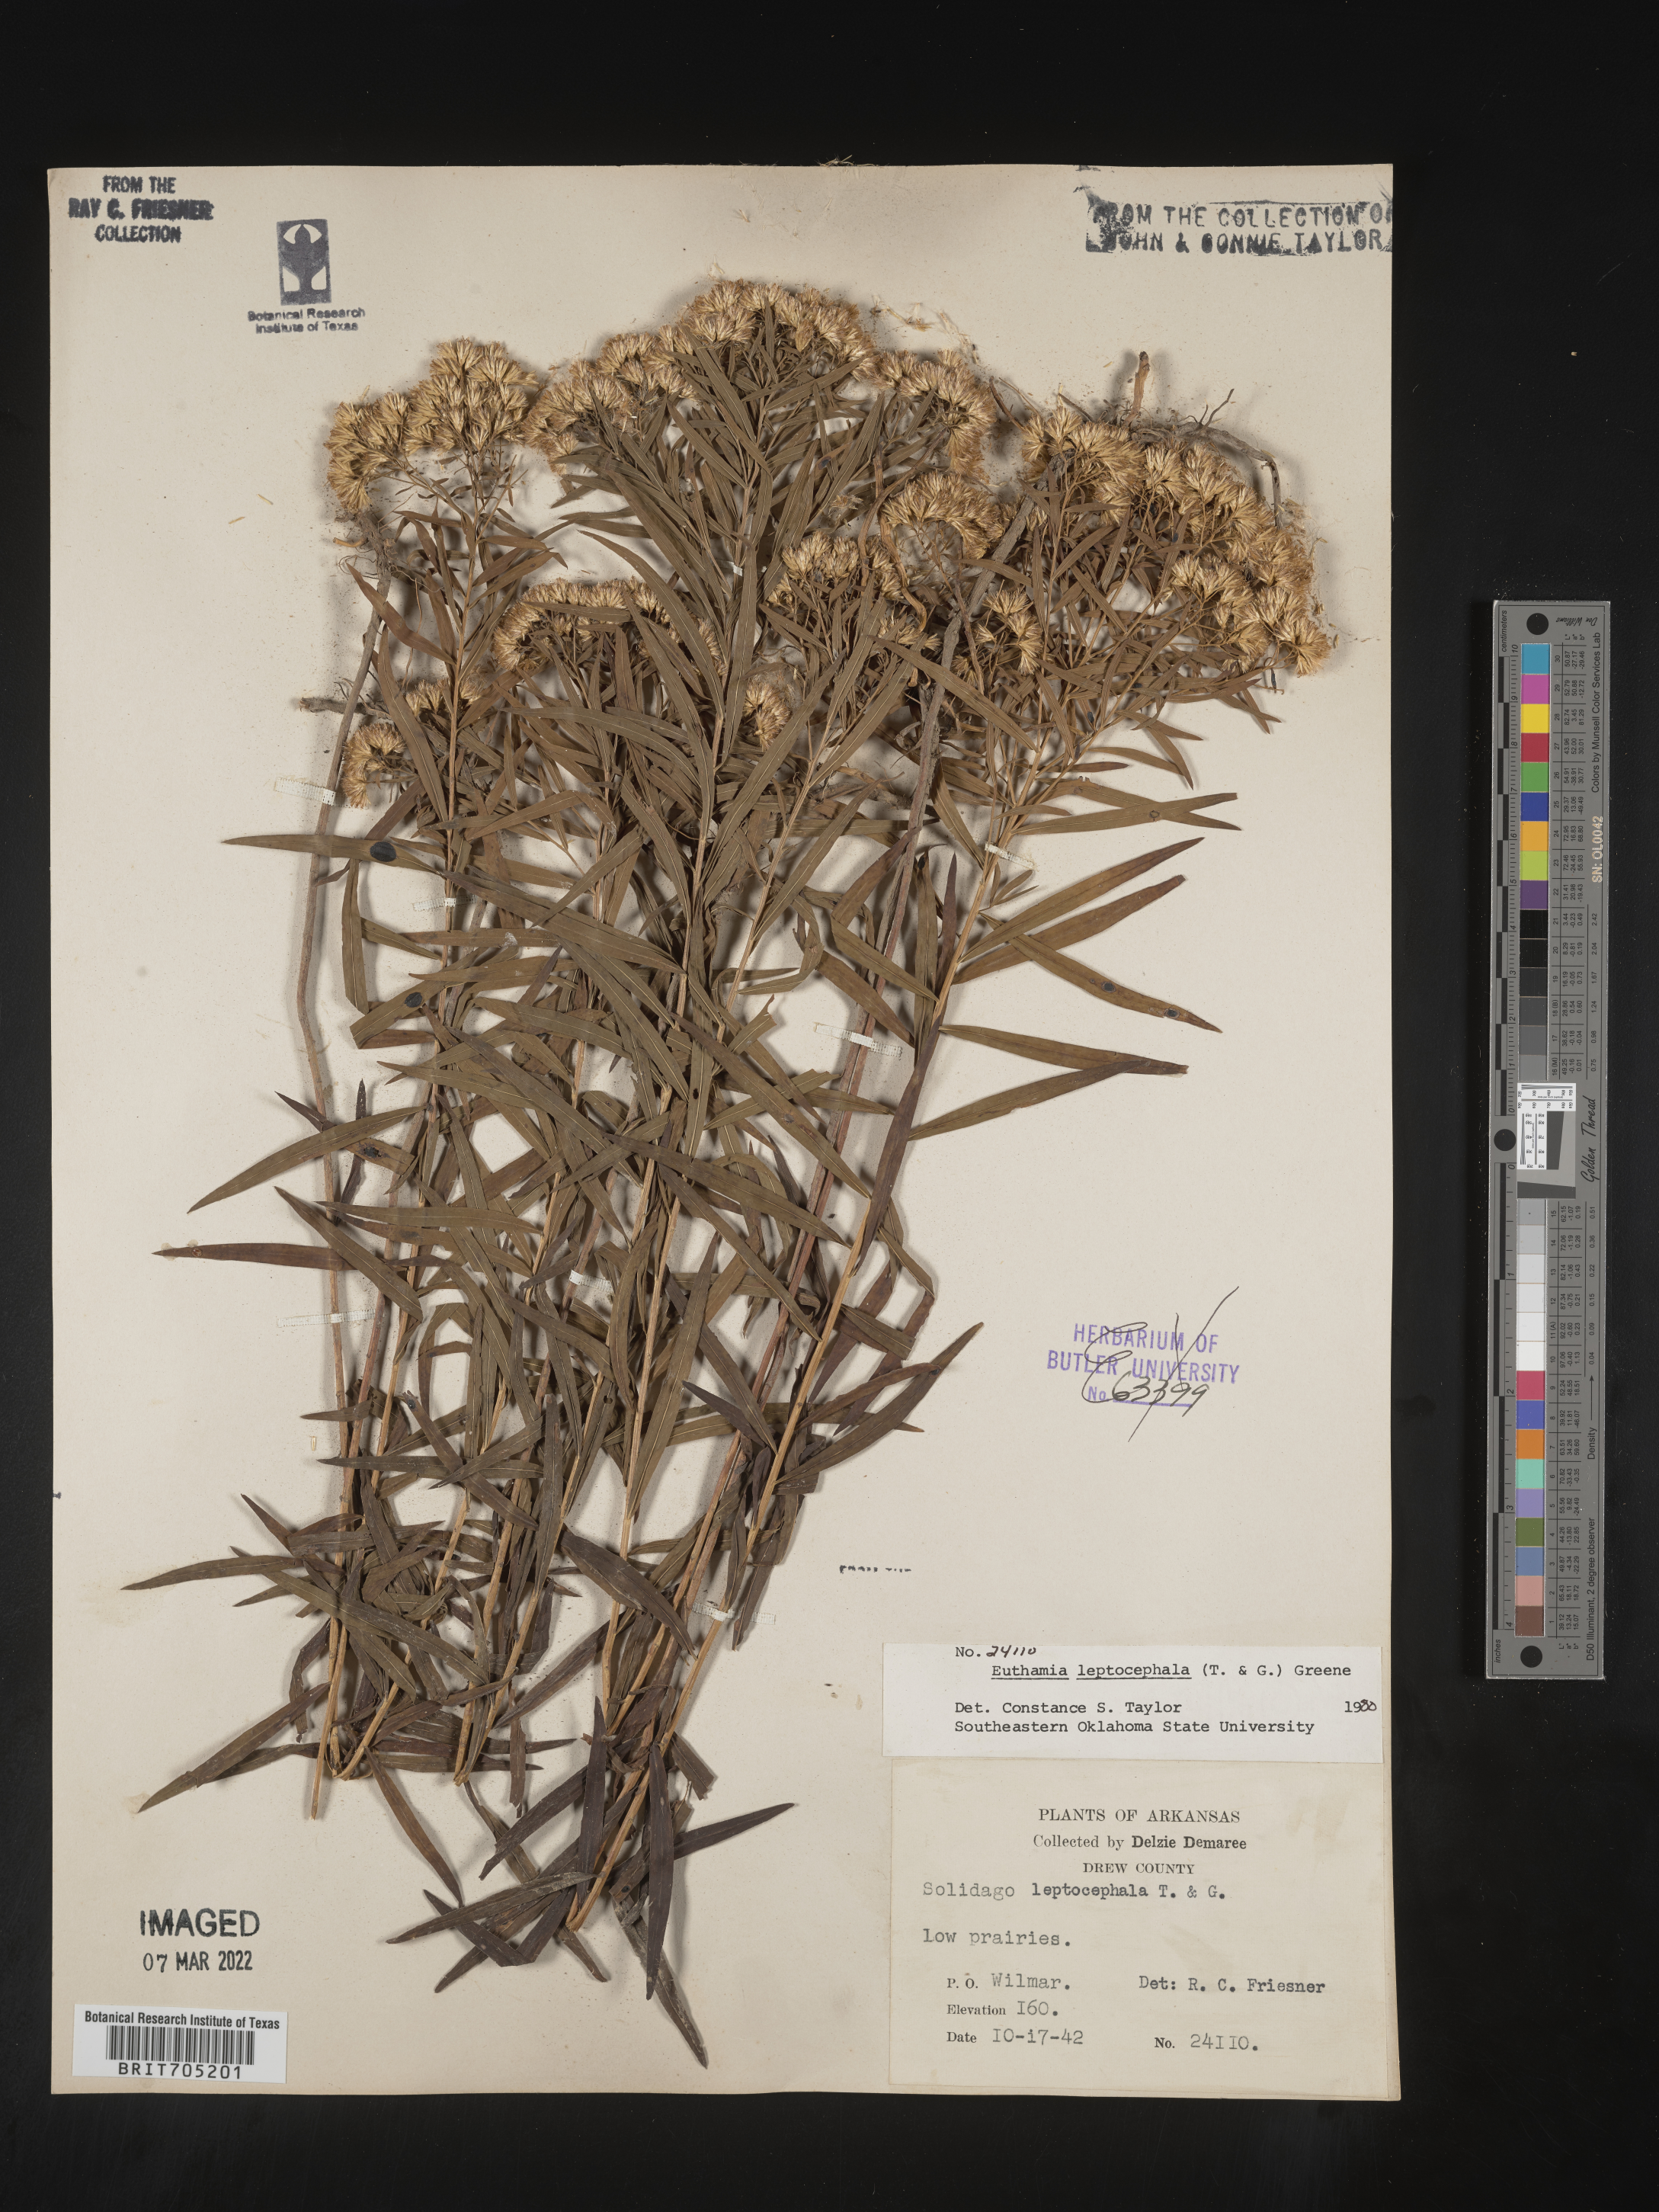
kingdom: Plantae
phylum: Tracheophyta
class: Magnoliopsida
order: Asterales
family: Asteraceae
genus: Euthamia
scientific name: Euthamia leptocephala
